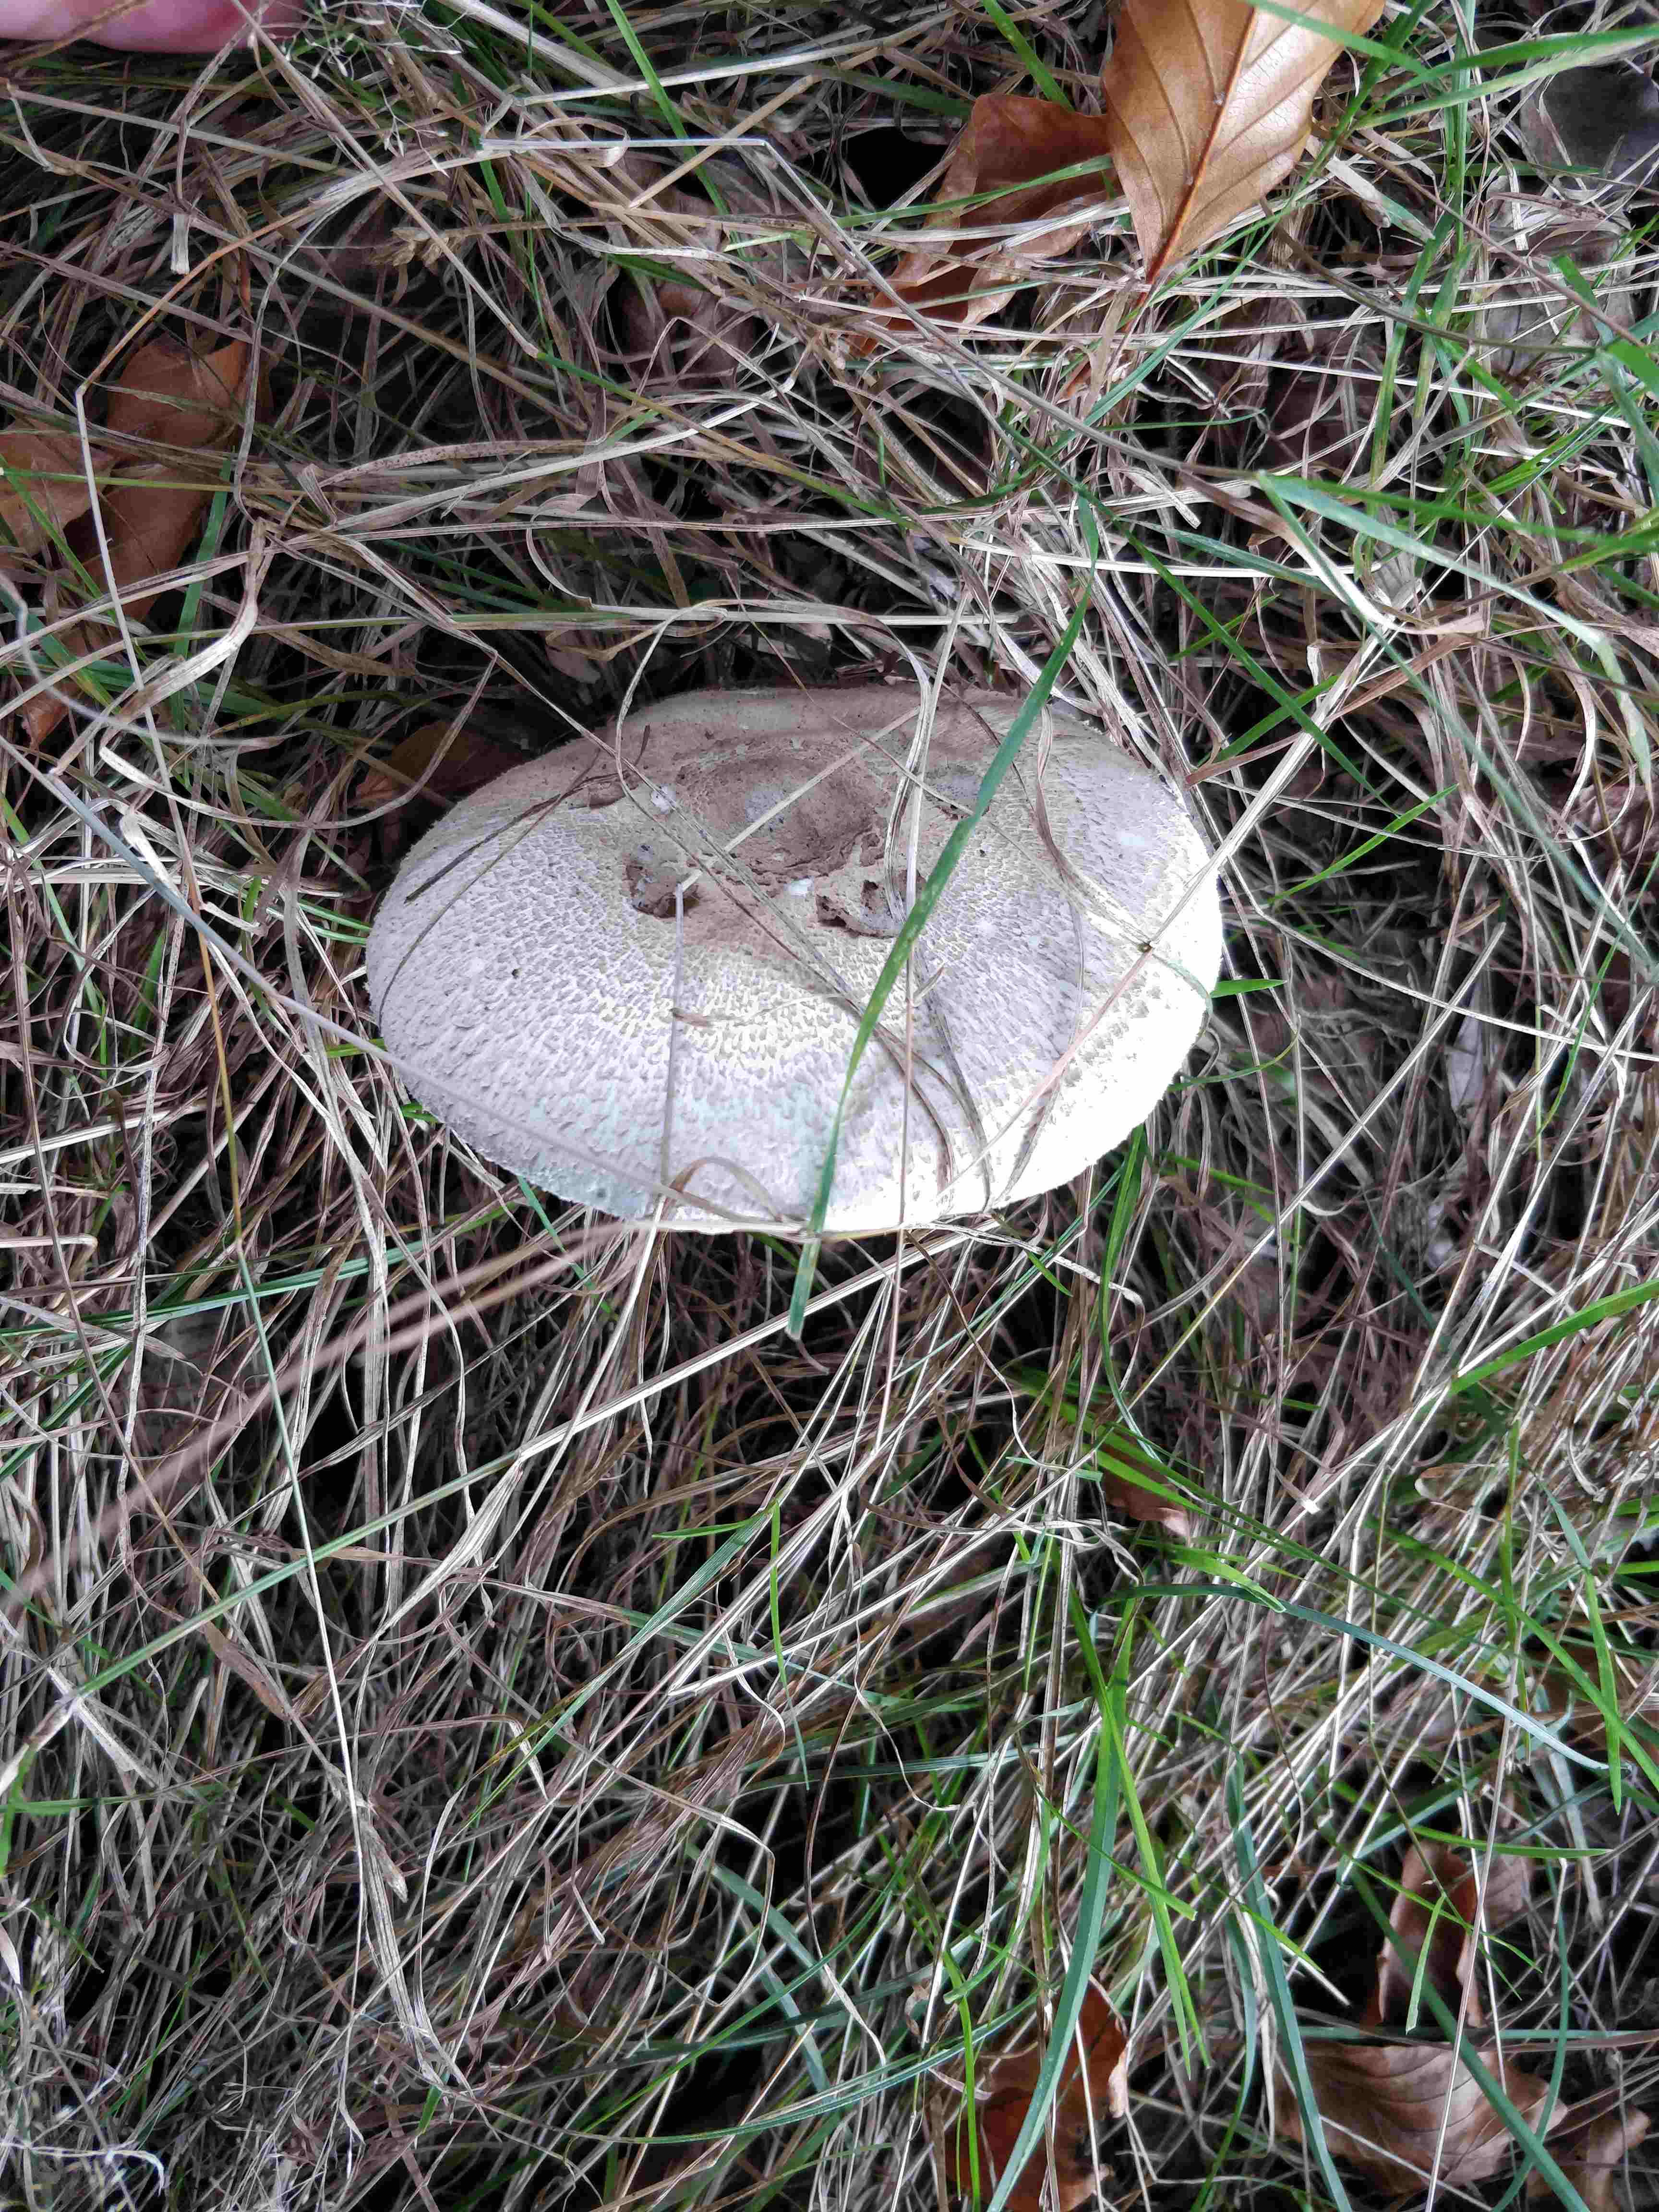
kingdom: Fungi
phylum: Basidiomycota
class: Agaricomycetes
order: Agaricales
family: Agaricaceae
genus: Macrolepiota
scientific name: Macrolepiota
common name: kæmpeparasolhat
